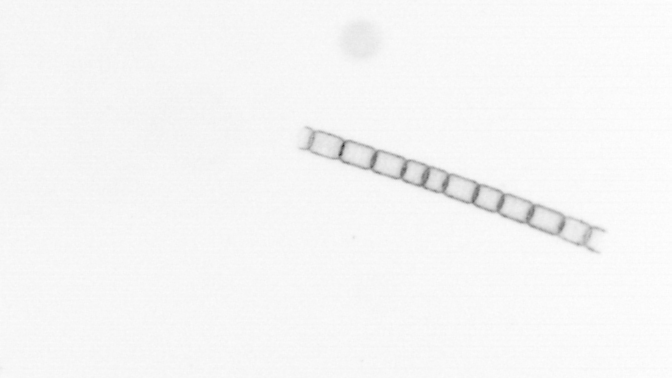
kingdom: Chromista
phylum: Ochrophyta
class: Bacillariophyceae
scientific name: Bacillariophyceae
